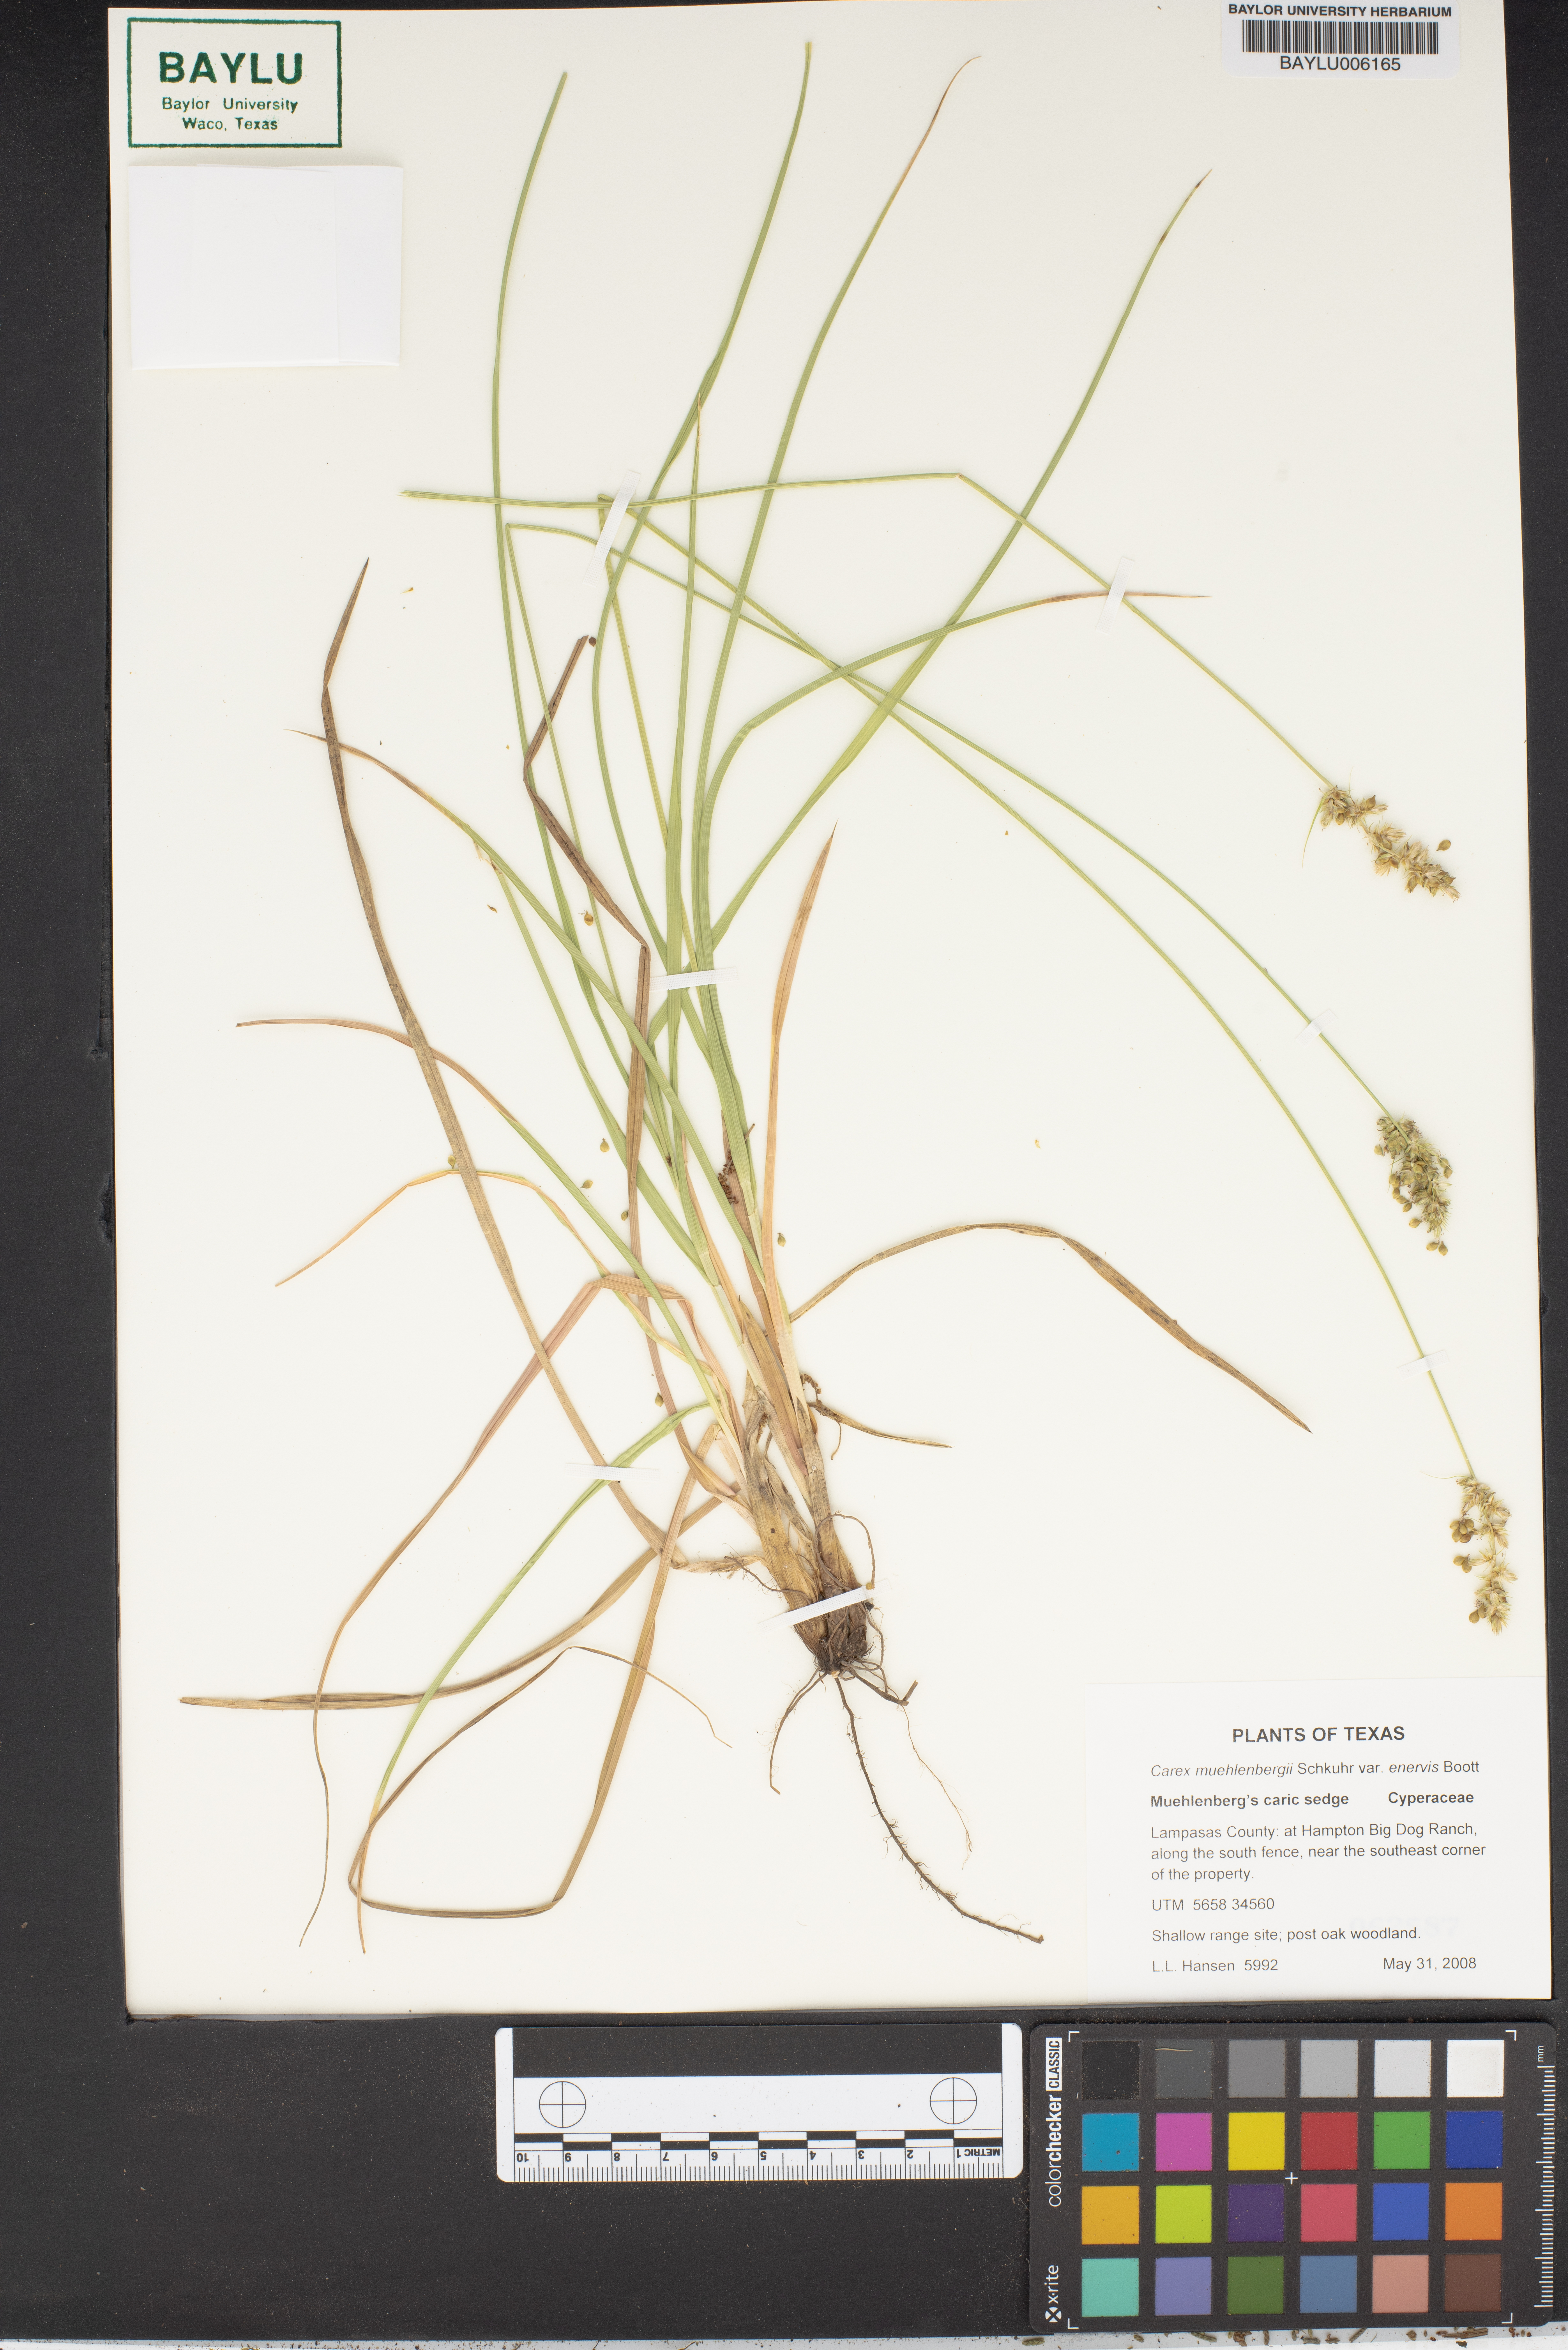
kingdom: Plantae
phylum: Tracheophyta
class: Liliopsida
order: Poales
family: Cyperaceae
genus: Carex
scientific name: Carex muehlenbergii
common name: Muhlenberg's bracted sedge
